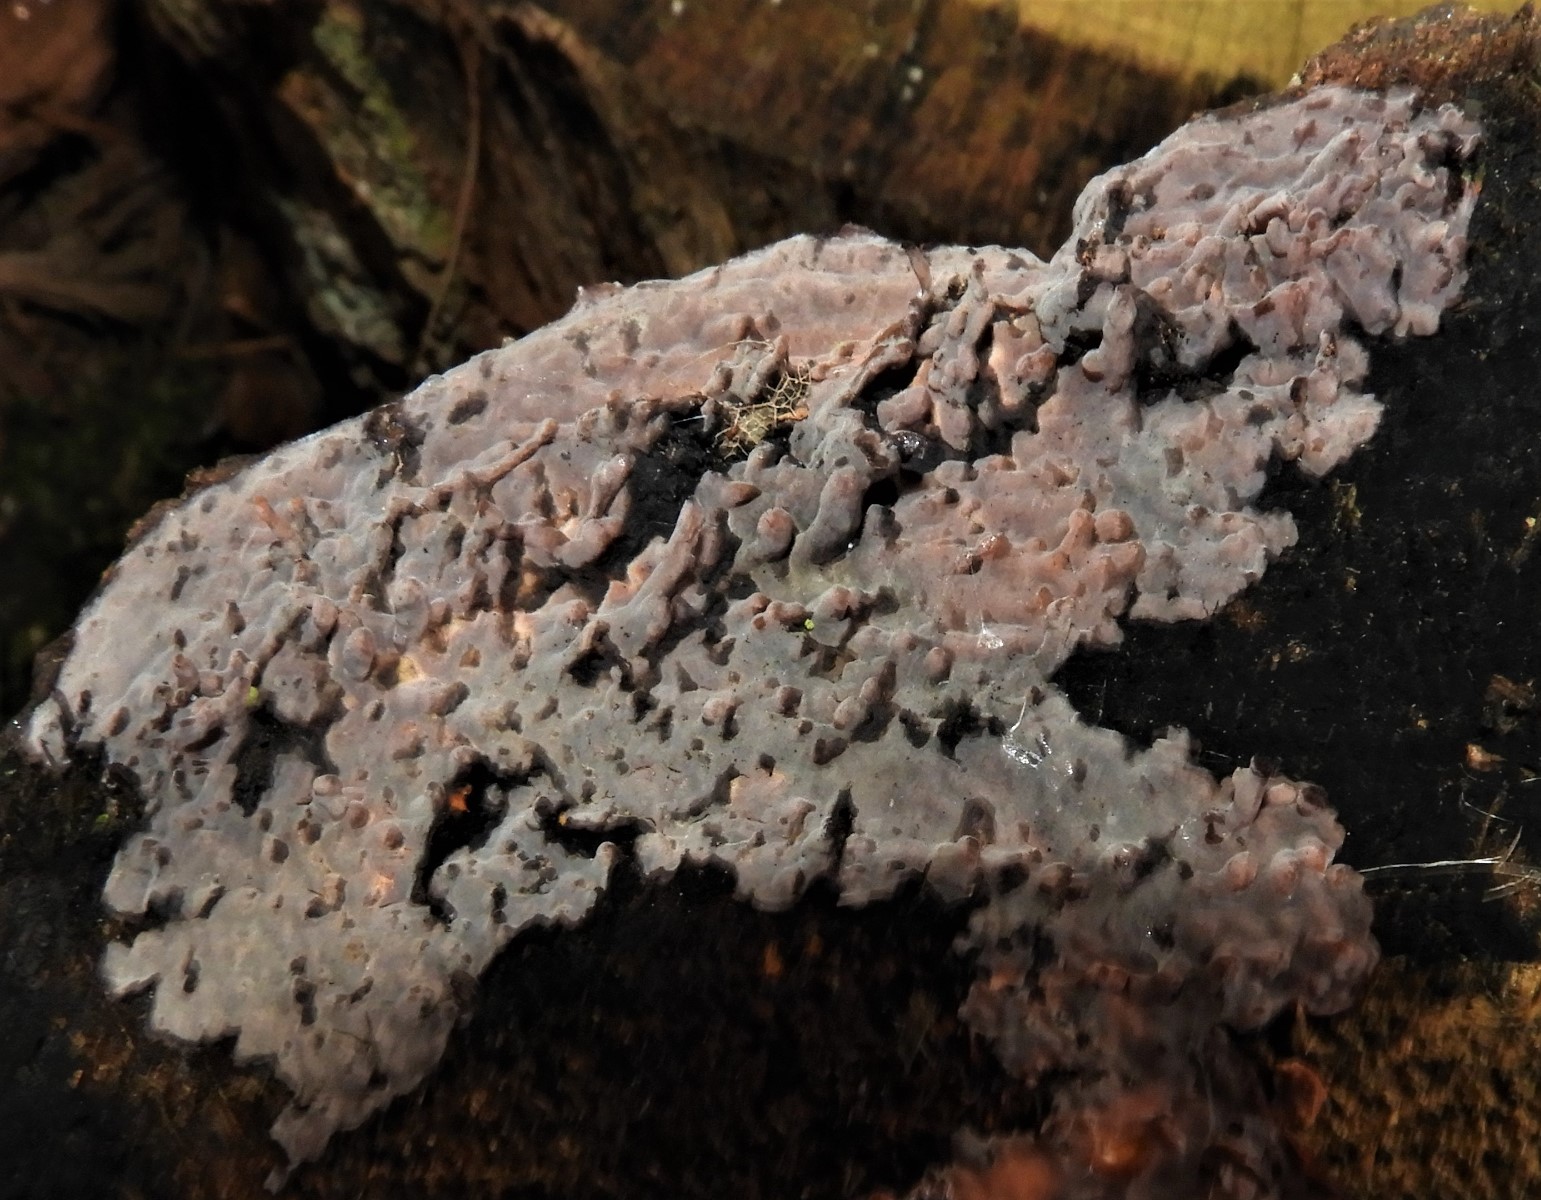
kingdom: Fungi
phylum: Basidiomycota
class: Agaricomycetes
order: Russulales
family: Peniophoraceae
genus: Peniophora
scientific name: Peniophora quercina
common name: ege-voksskind
